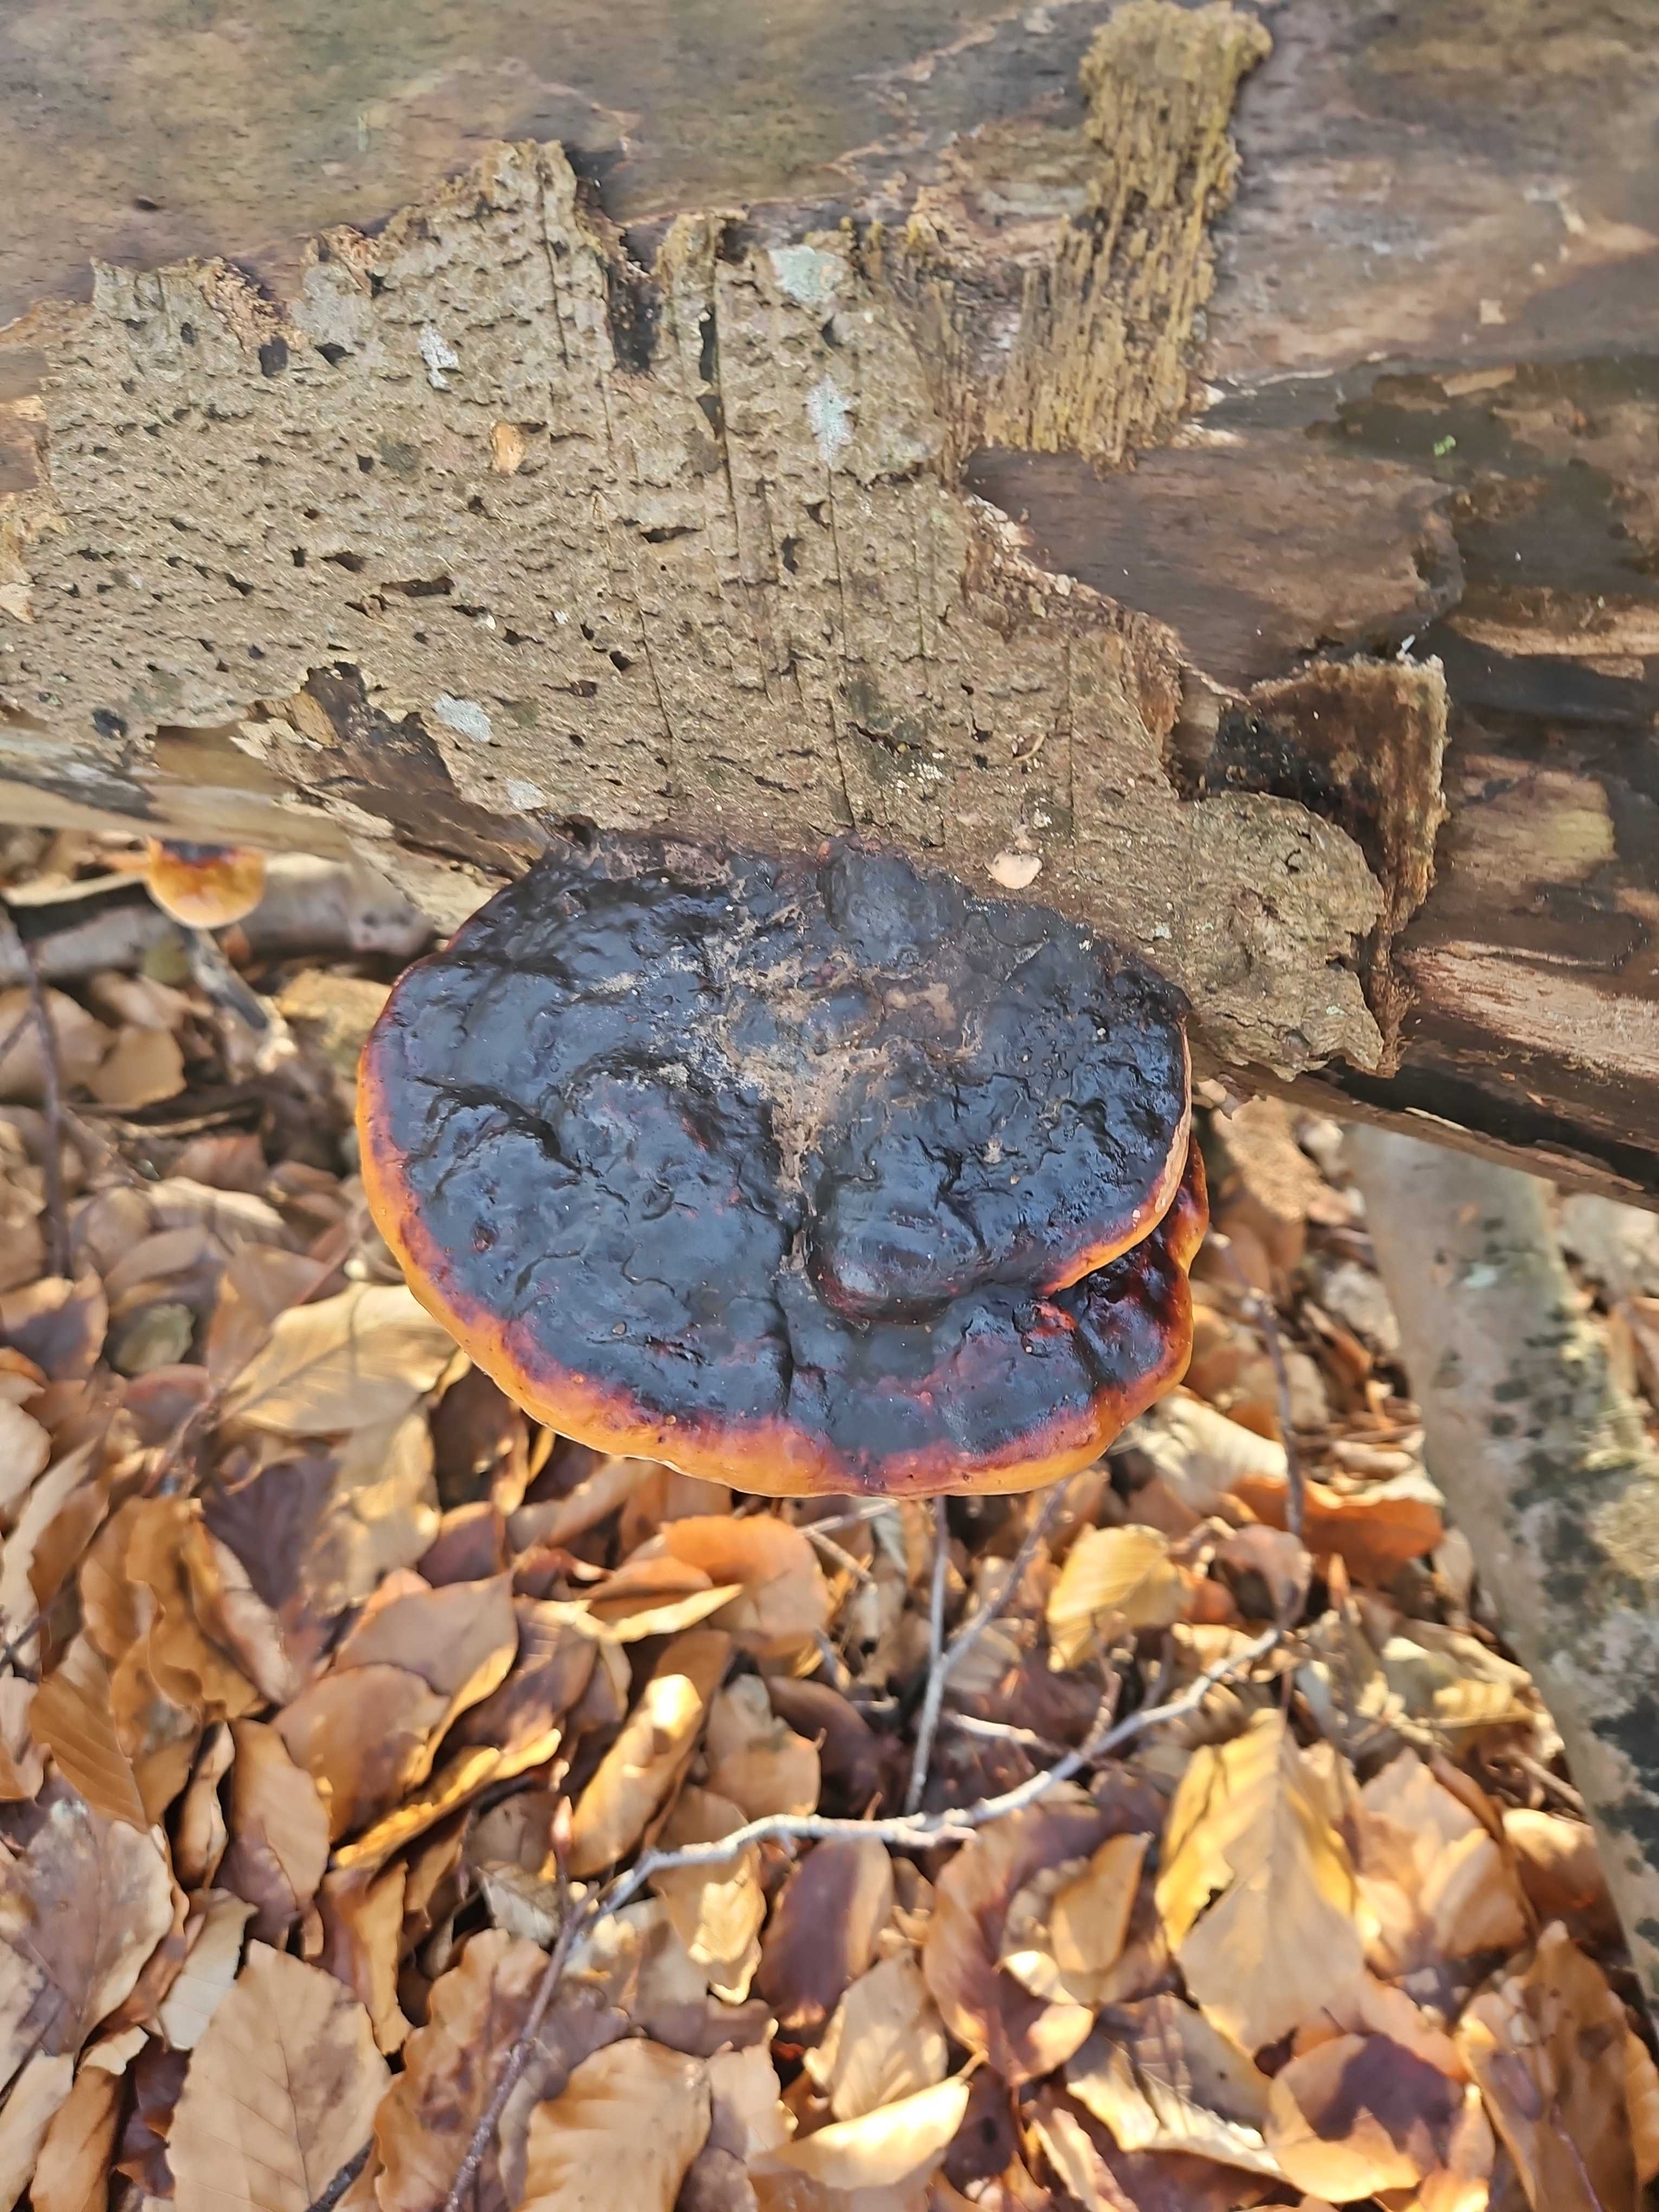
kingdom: Fungi
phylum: Basidiomycota
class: Agaricomycetes
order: Polyporales
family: Fomitopsidaceae
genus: Fomitopsis
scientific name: Fomitopsis pinicola
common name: randbæltet hovporesvamp
